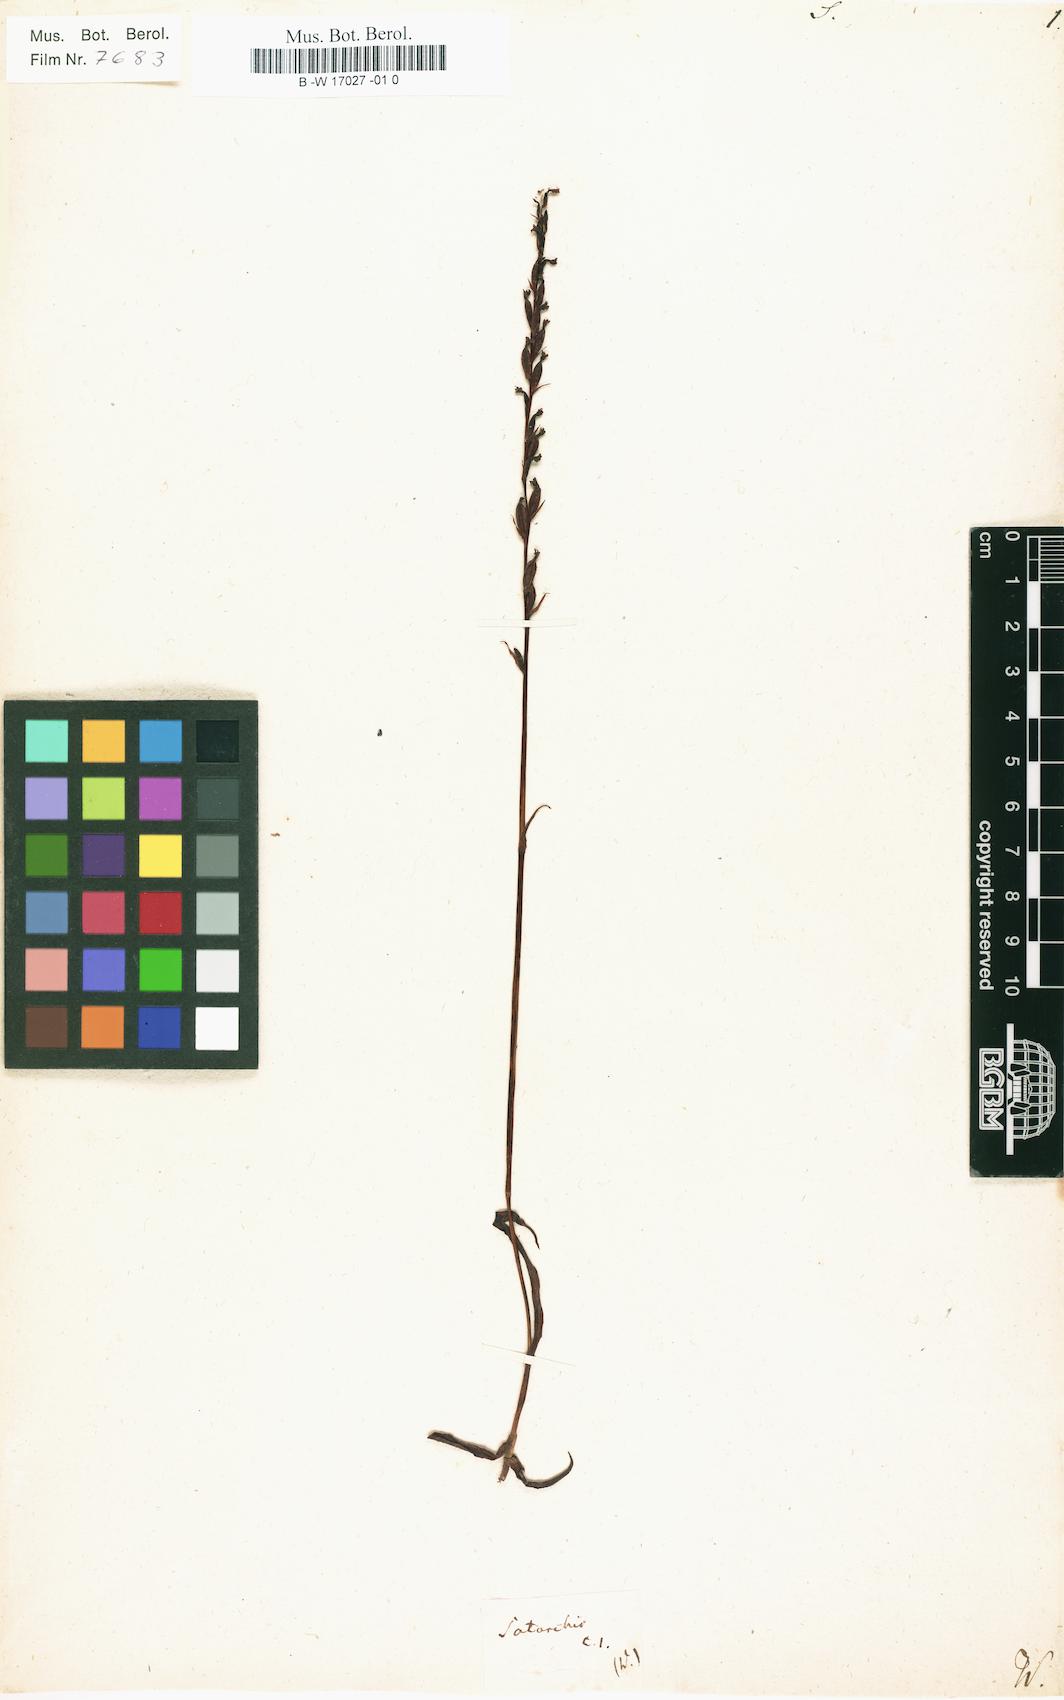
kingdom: Plantae
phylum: Tracheophyta
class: Liliopsida
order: Asparagales
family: Orchidaceae
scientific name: Orchidaceae
